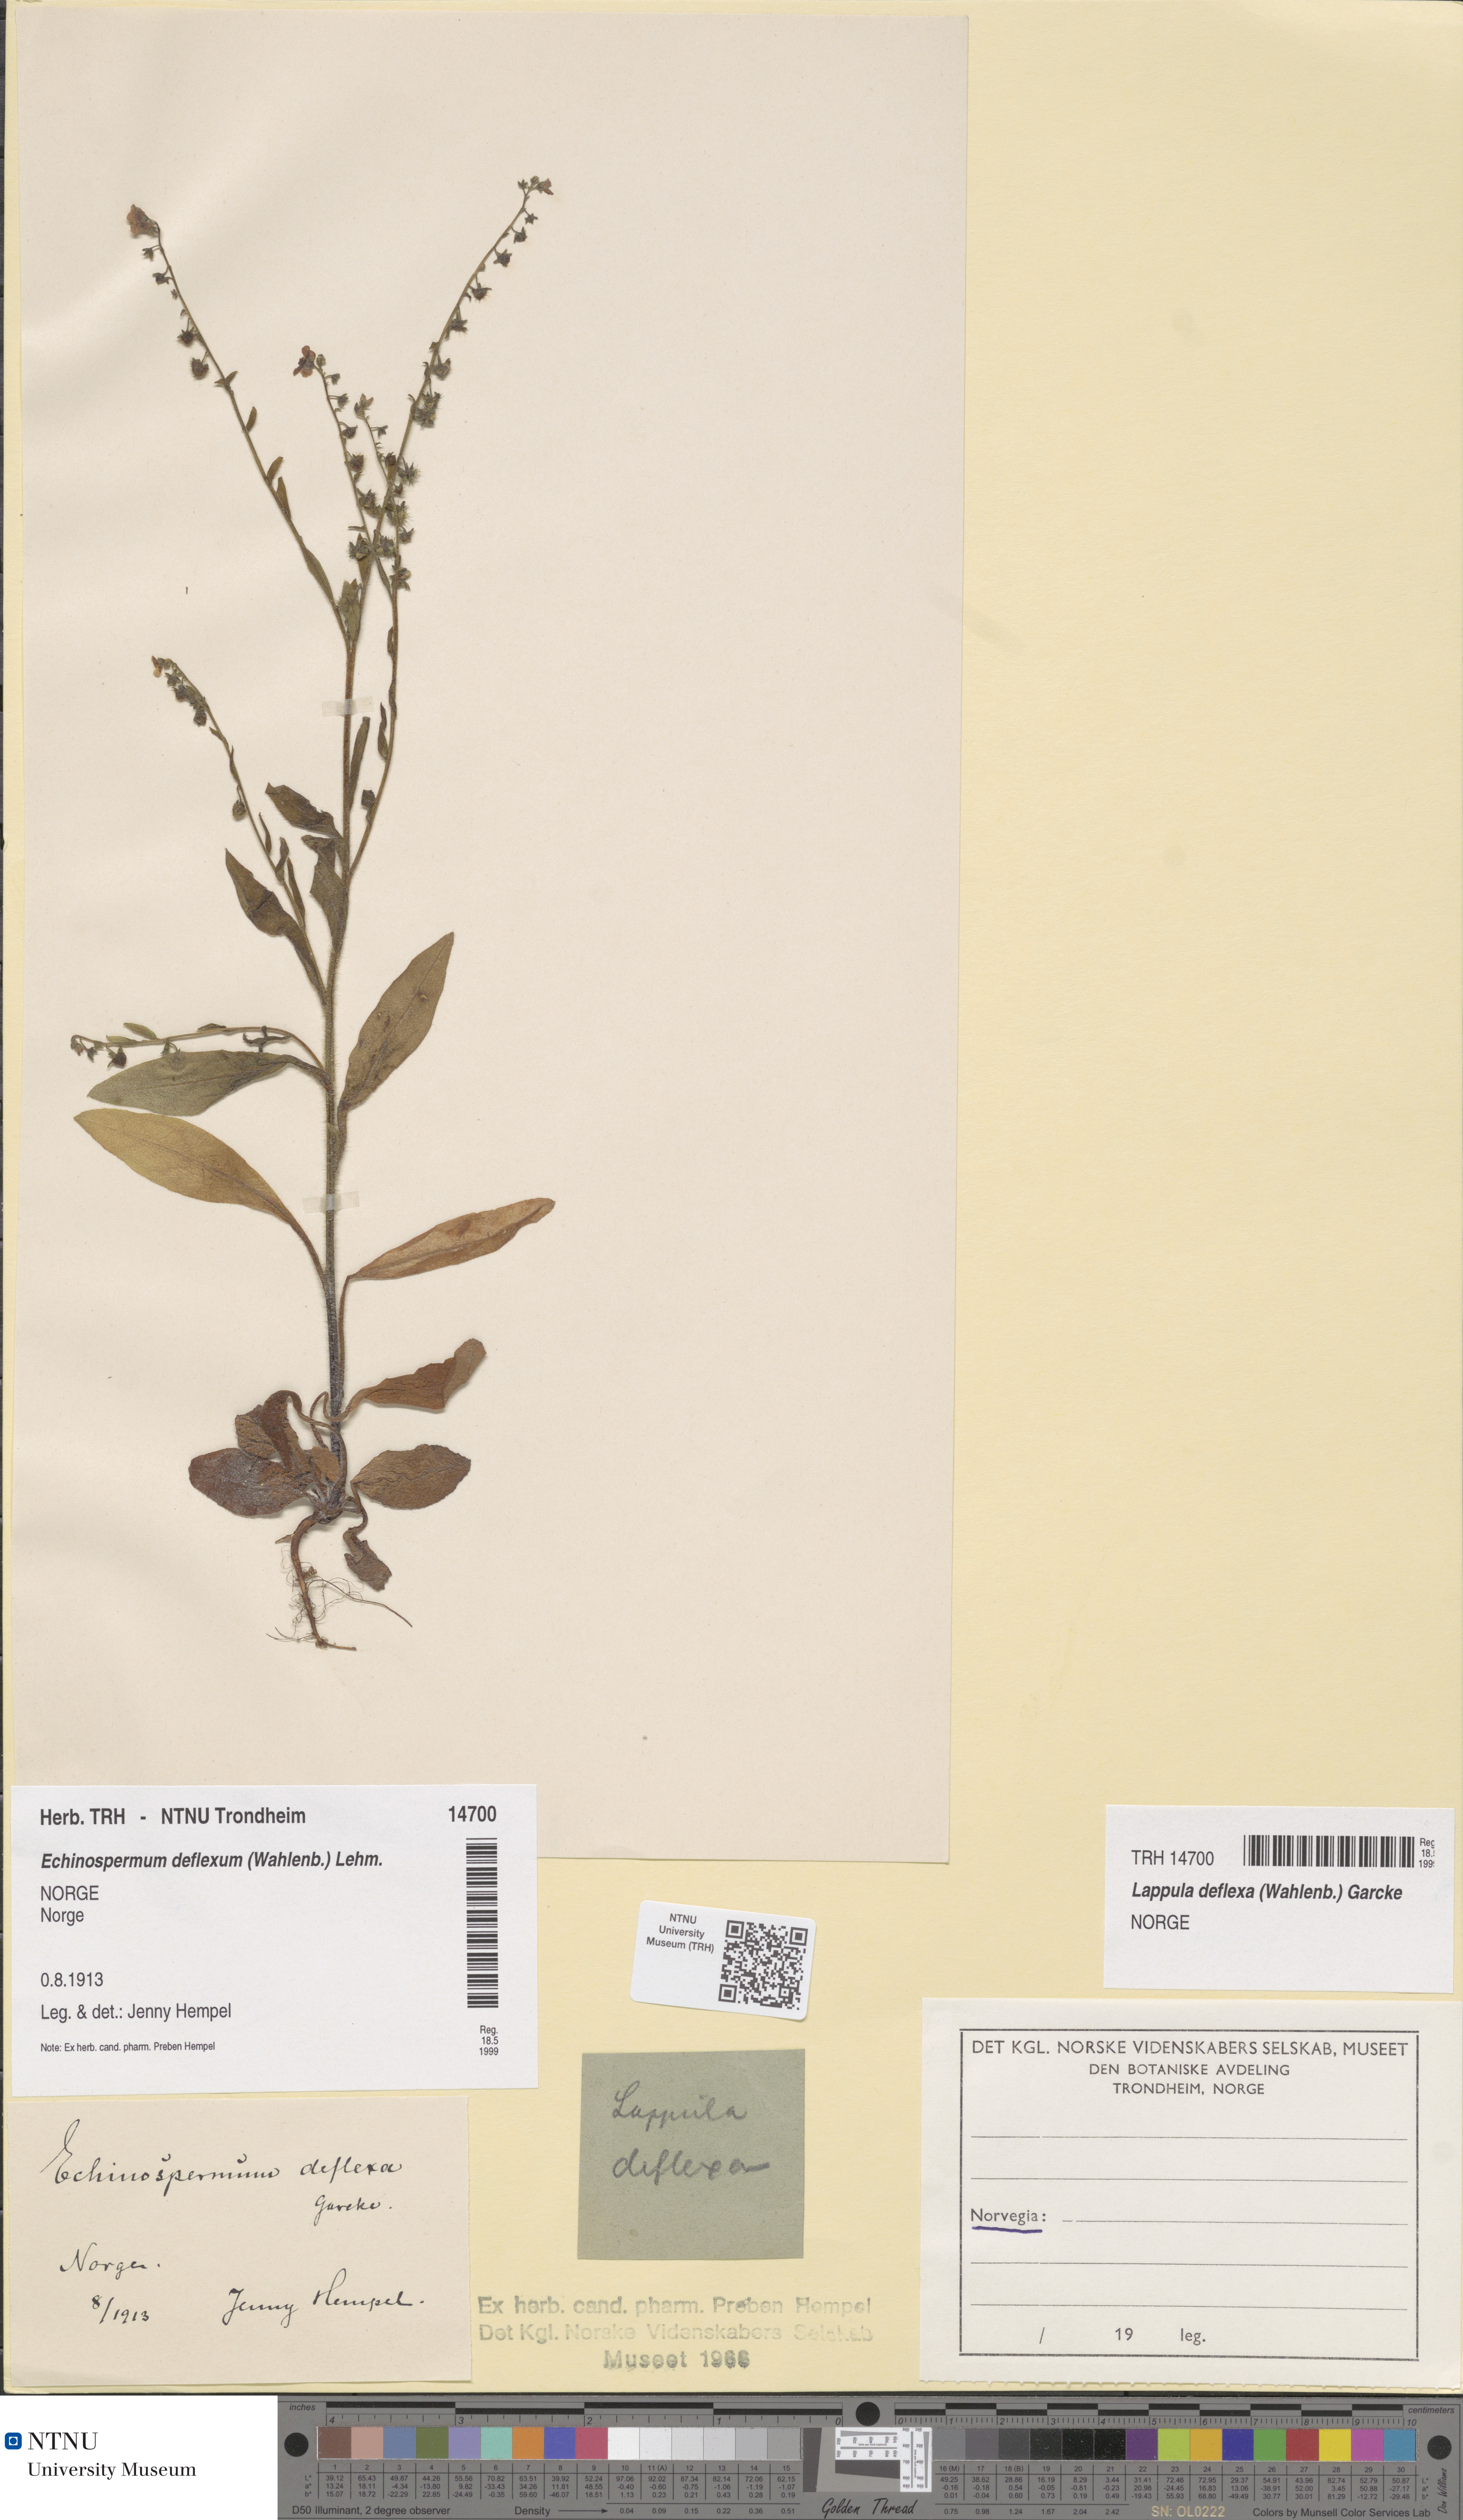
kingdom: Plantae
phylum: Tracheophyta
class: Magnoliopsida
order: Boraginales
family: Boraginaceae
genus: Hackelia
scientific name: Hackelia deflexa
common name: Nodding stickseed
